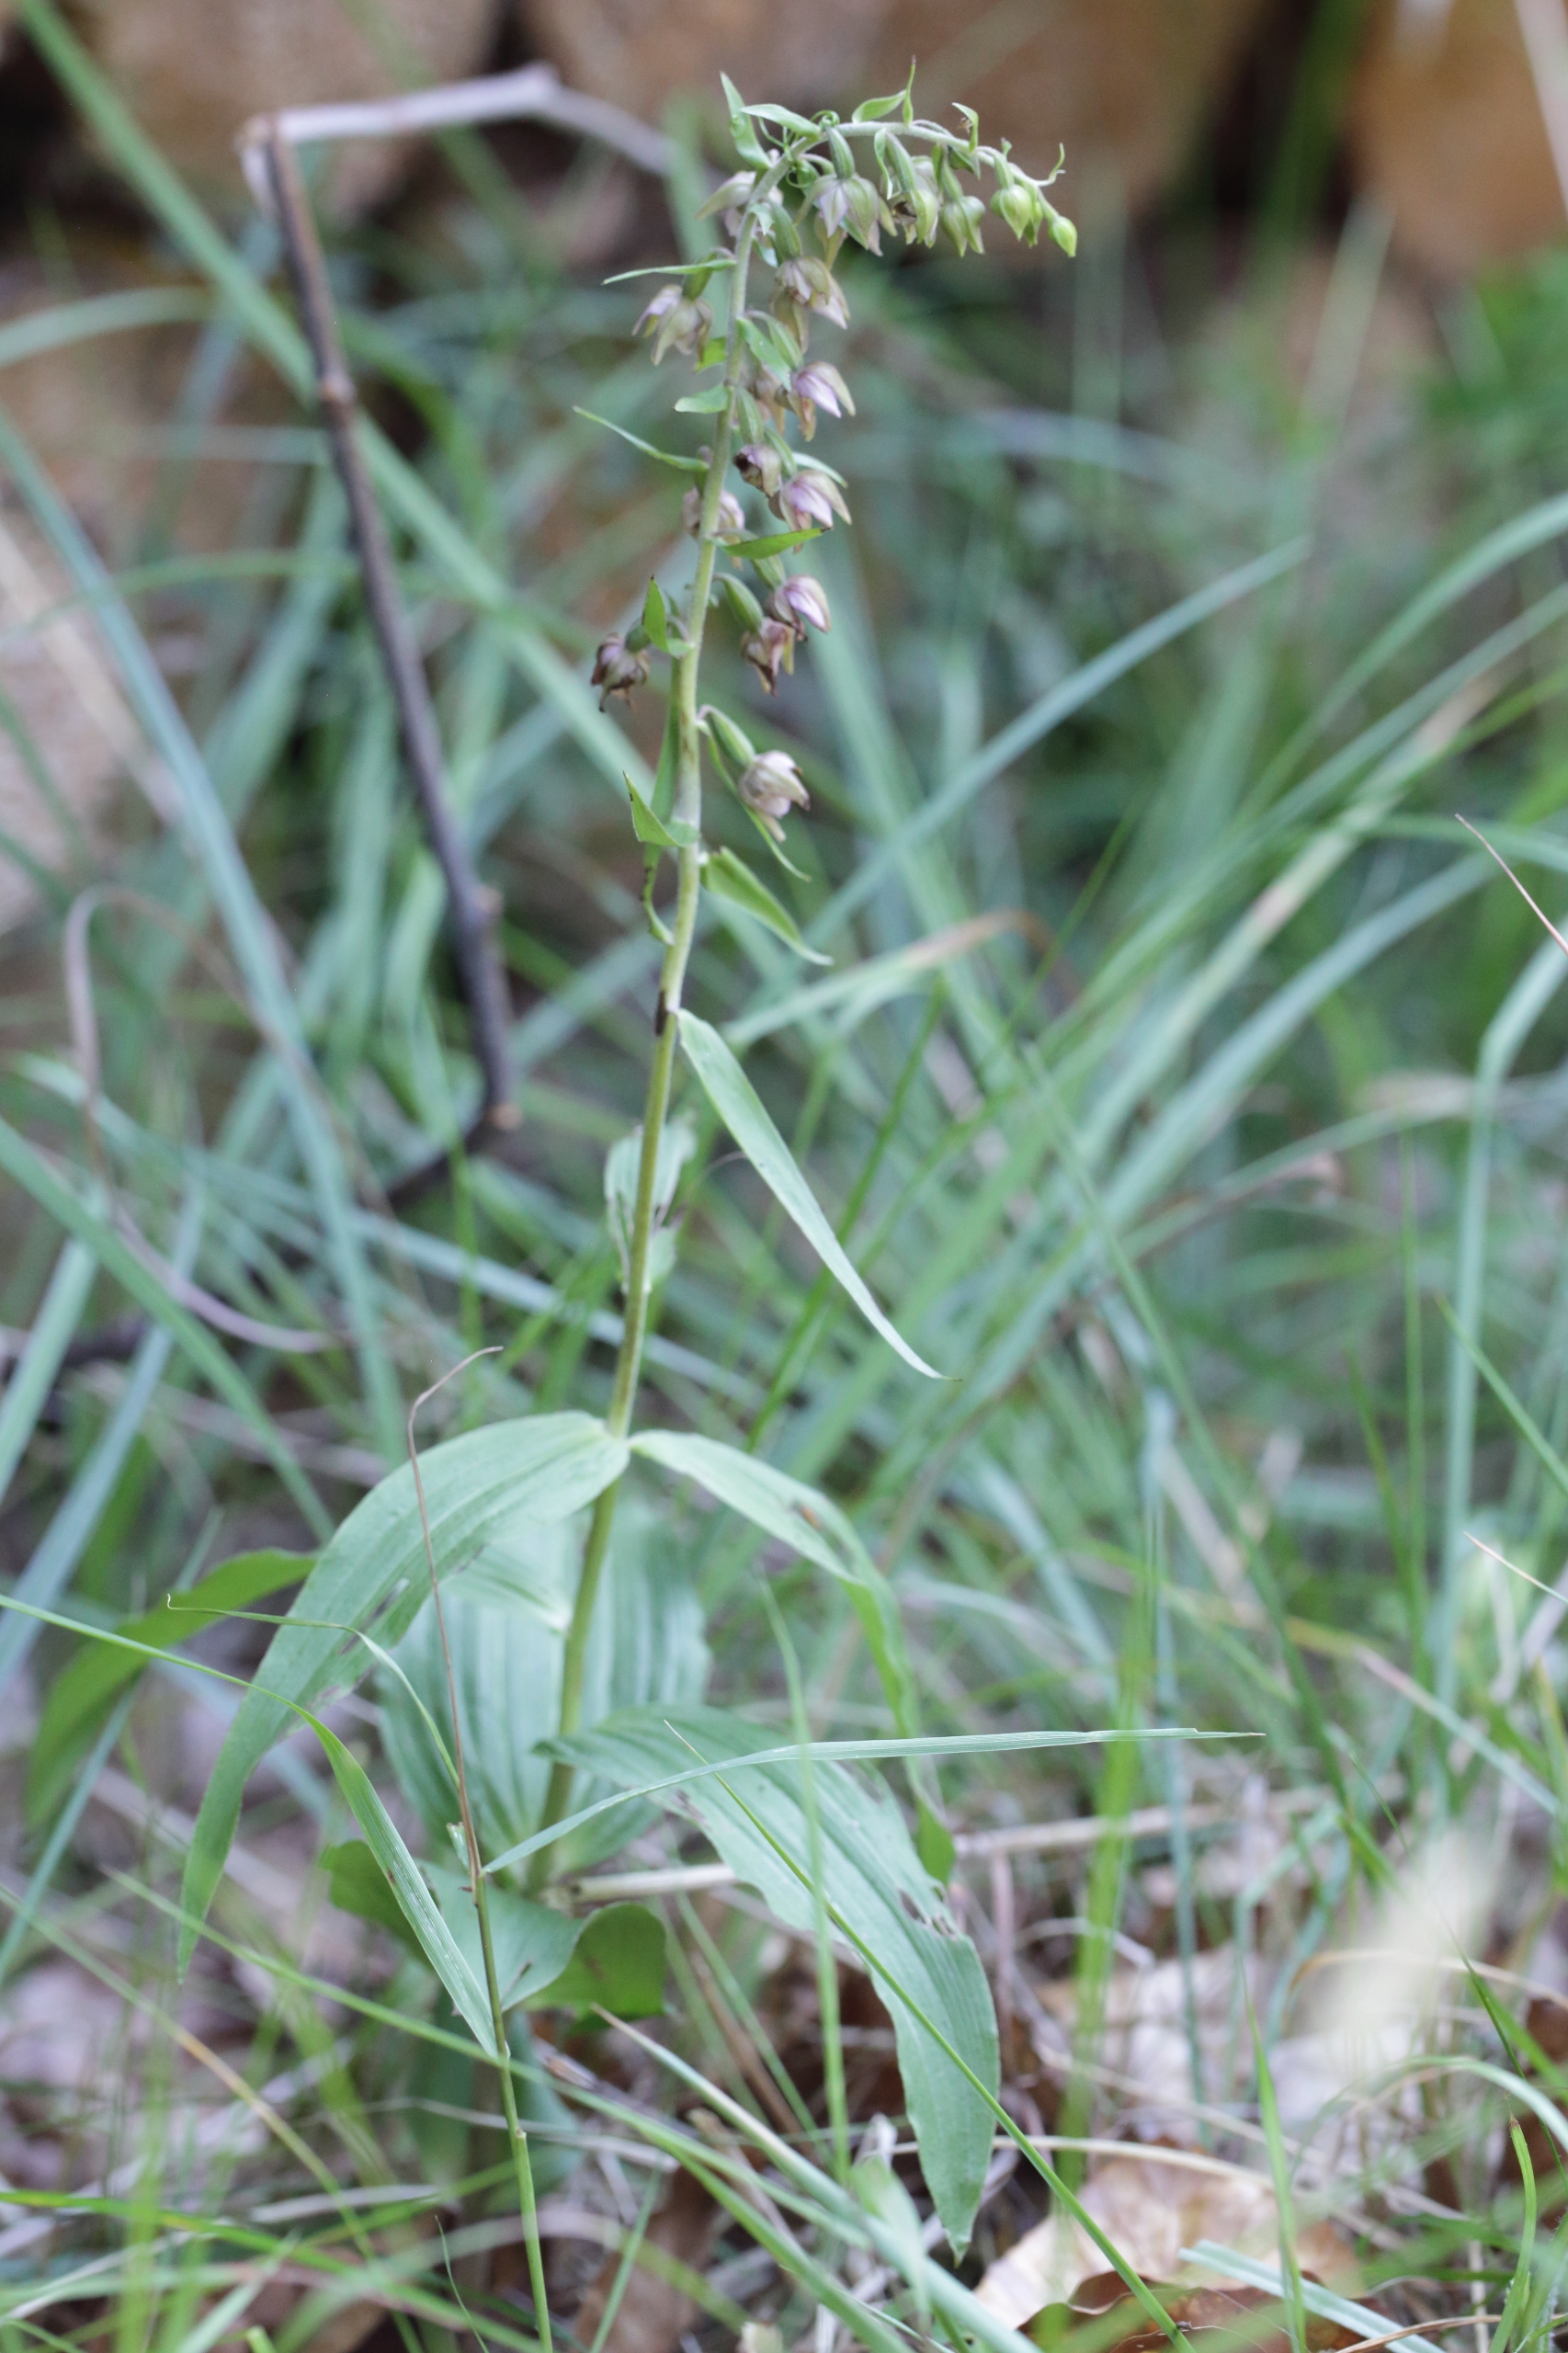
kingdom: Plantae
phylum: Tracheophyta
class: Liliopsida
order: Asparagales
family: Orchidaceae
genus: Epipactis
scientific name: Epipactis helleborine
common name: Skov-hullæbe
